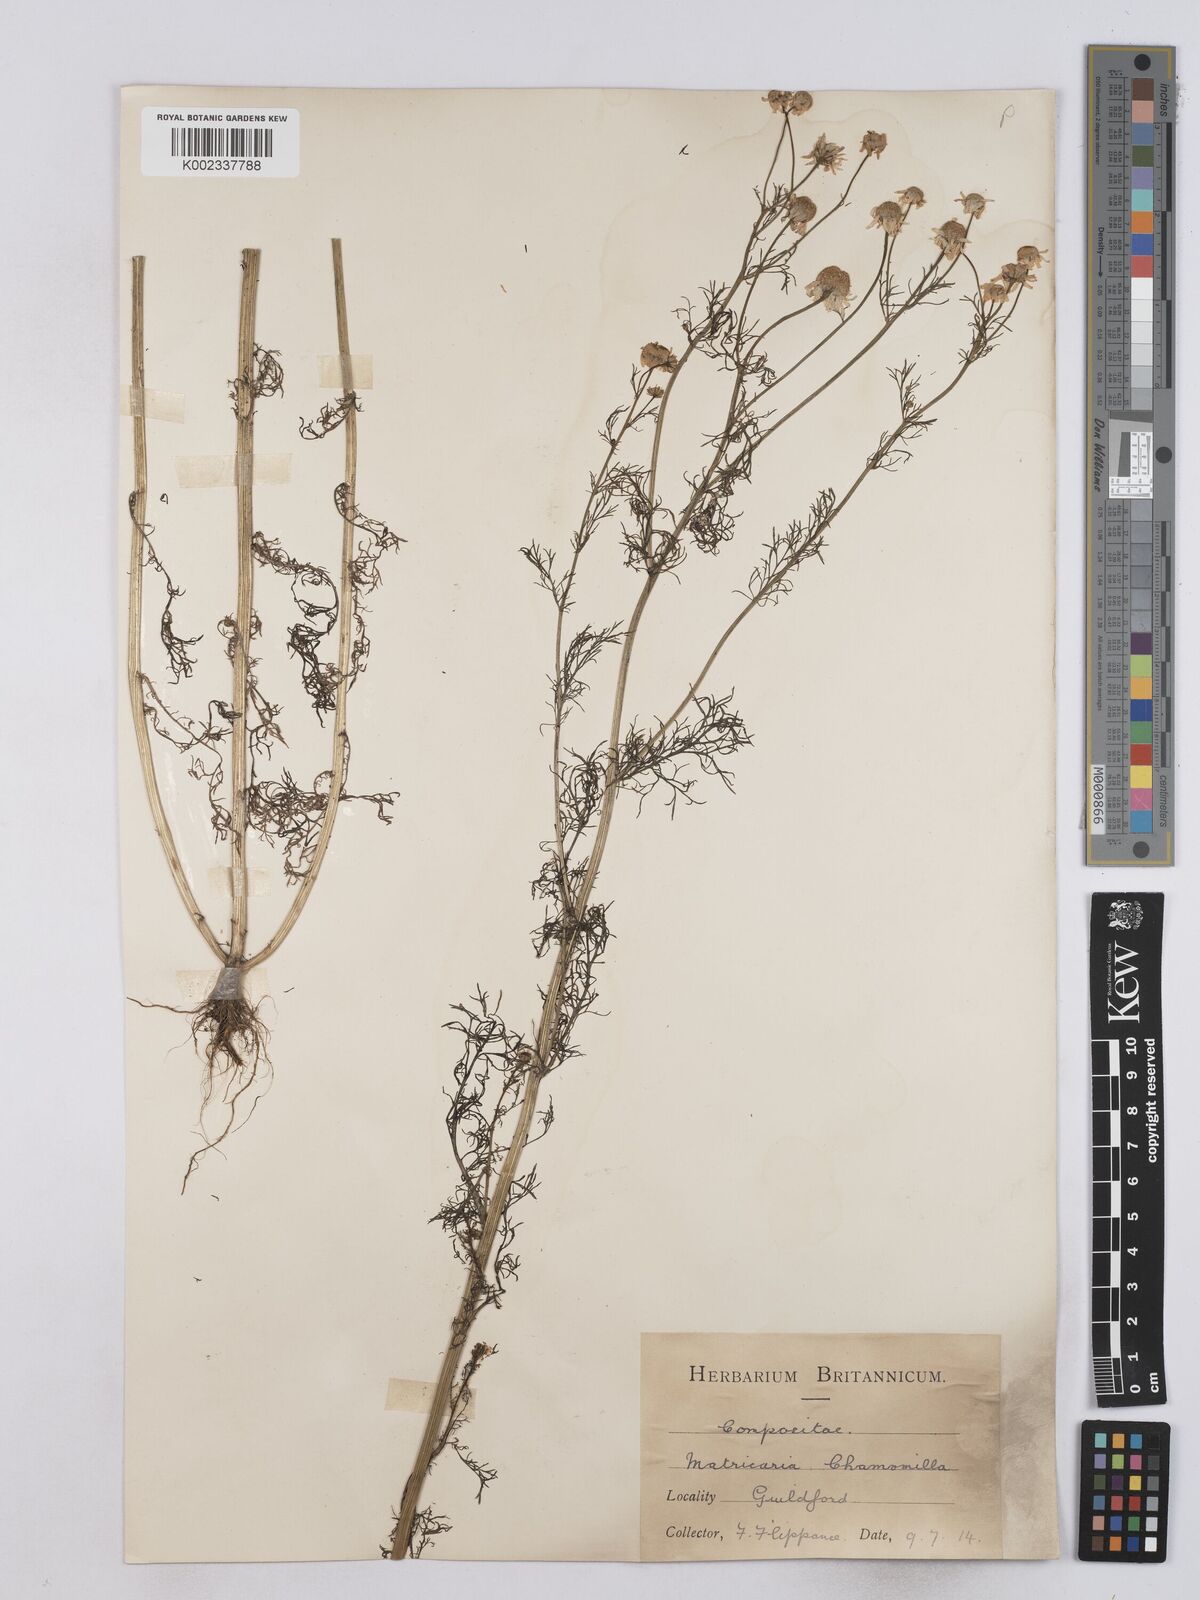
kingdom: Plantae
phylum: Tracheophyta
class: Magnoliopsida
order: Asterales
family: Asteraceae
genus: Matricaria
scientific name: Matricaria chamomilla
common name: Scented mayweed
